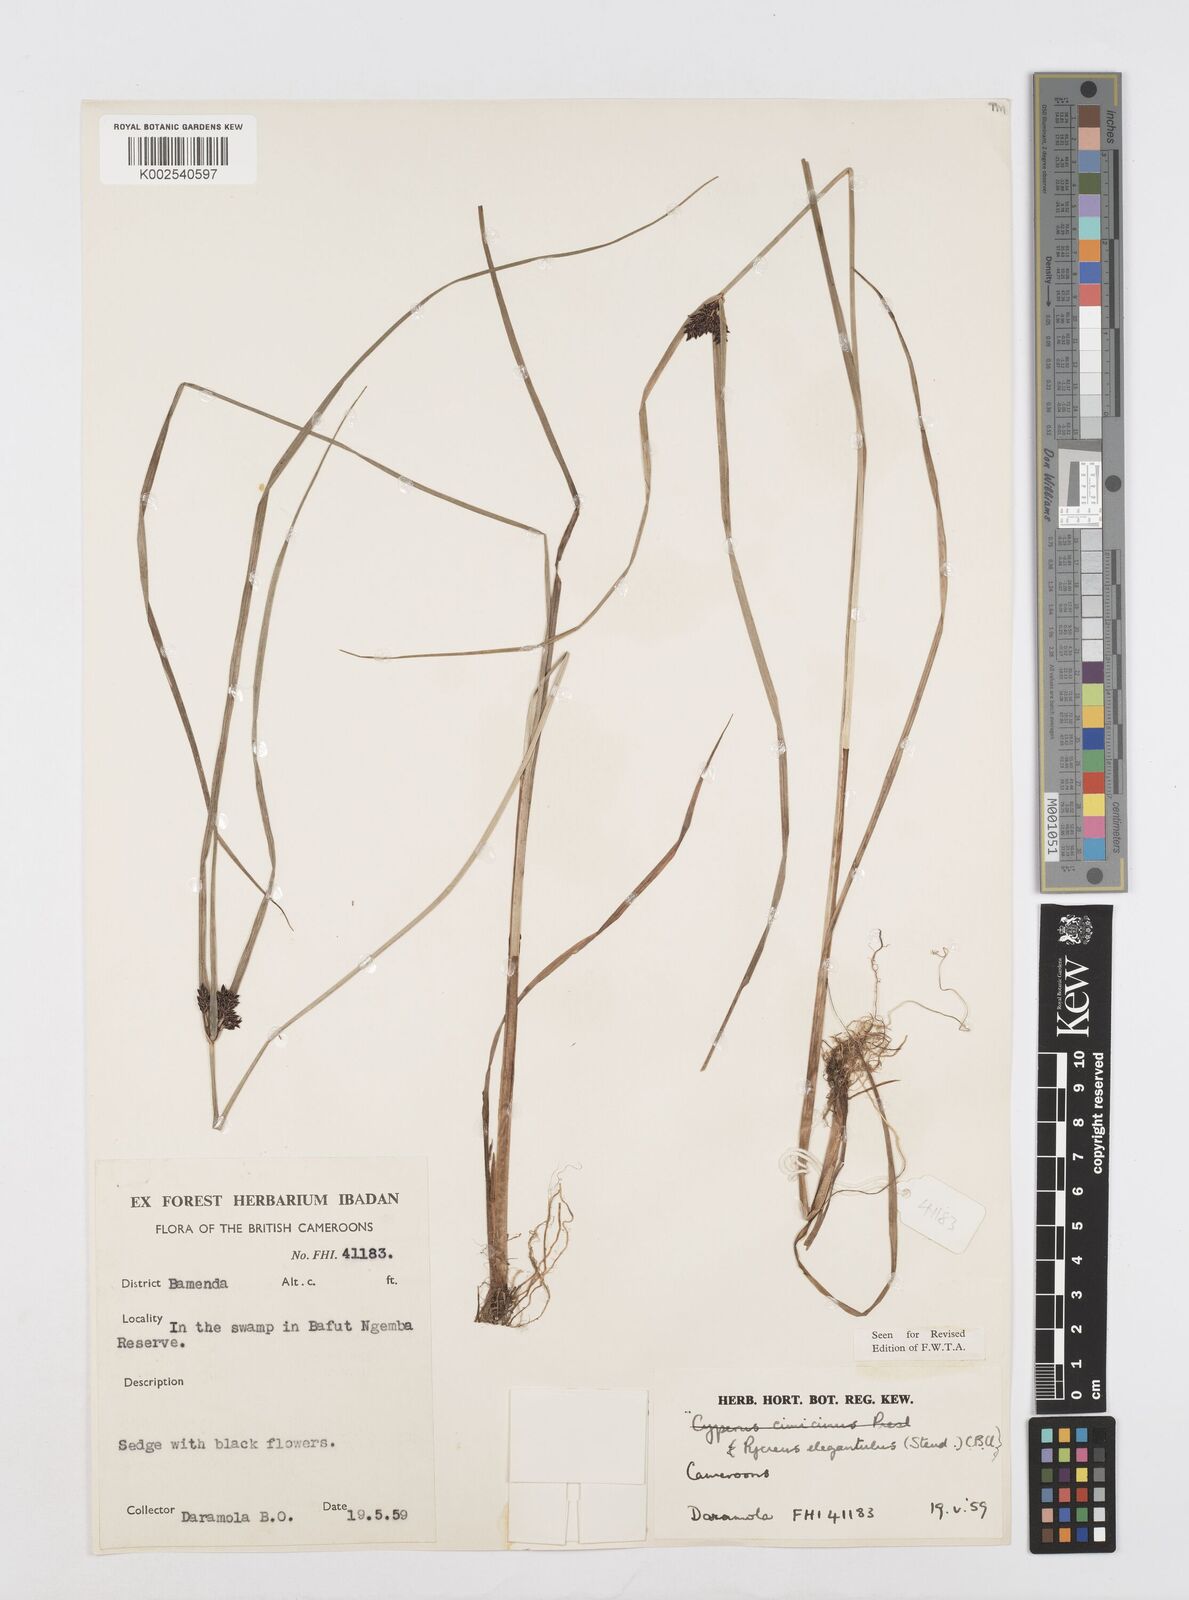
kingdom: Plantae
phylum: Tracheophyta
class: Liliopsida
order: Poales
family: Cyperaceae
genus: Cyperus
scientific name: Cyperus elegantulus
